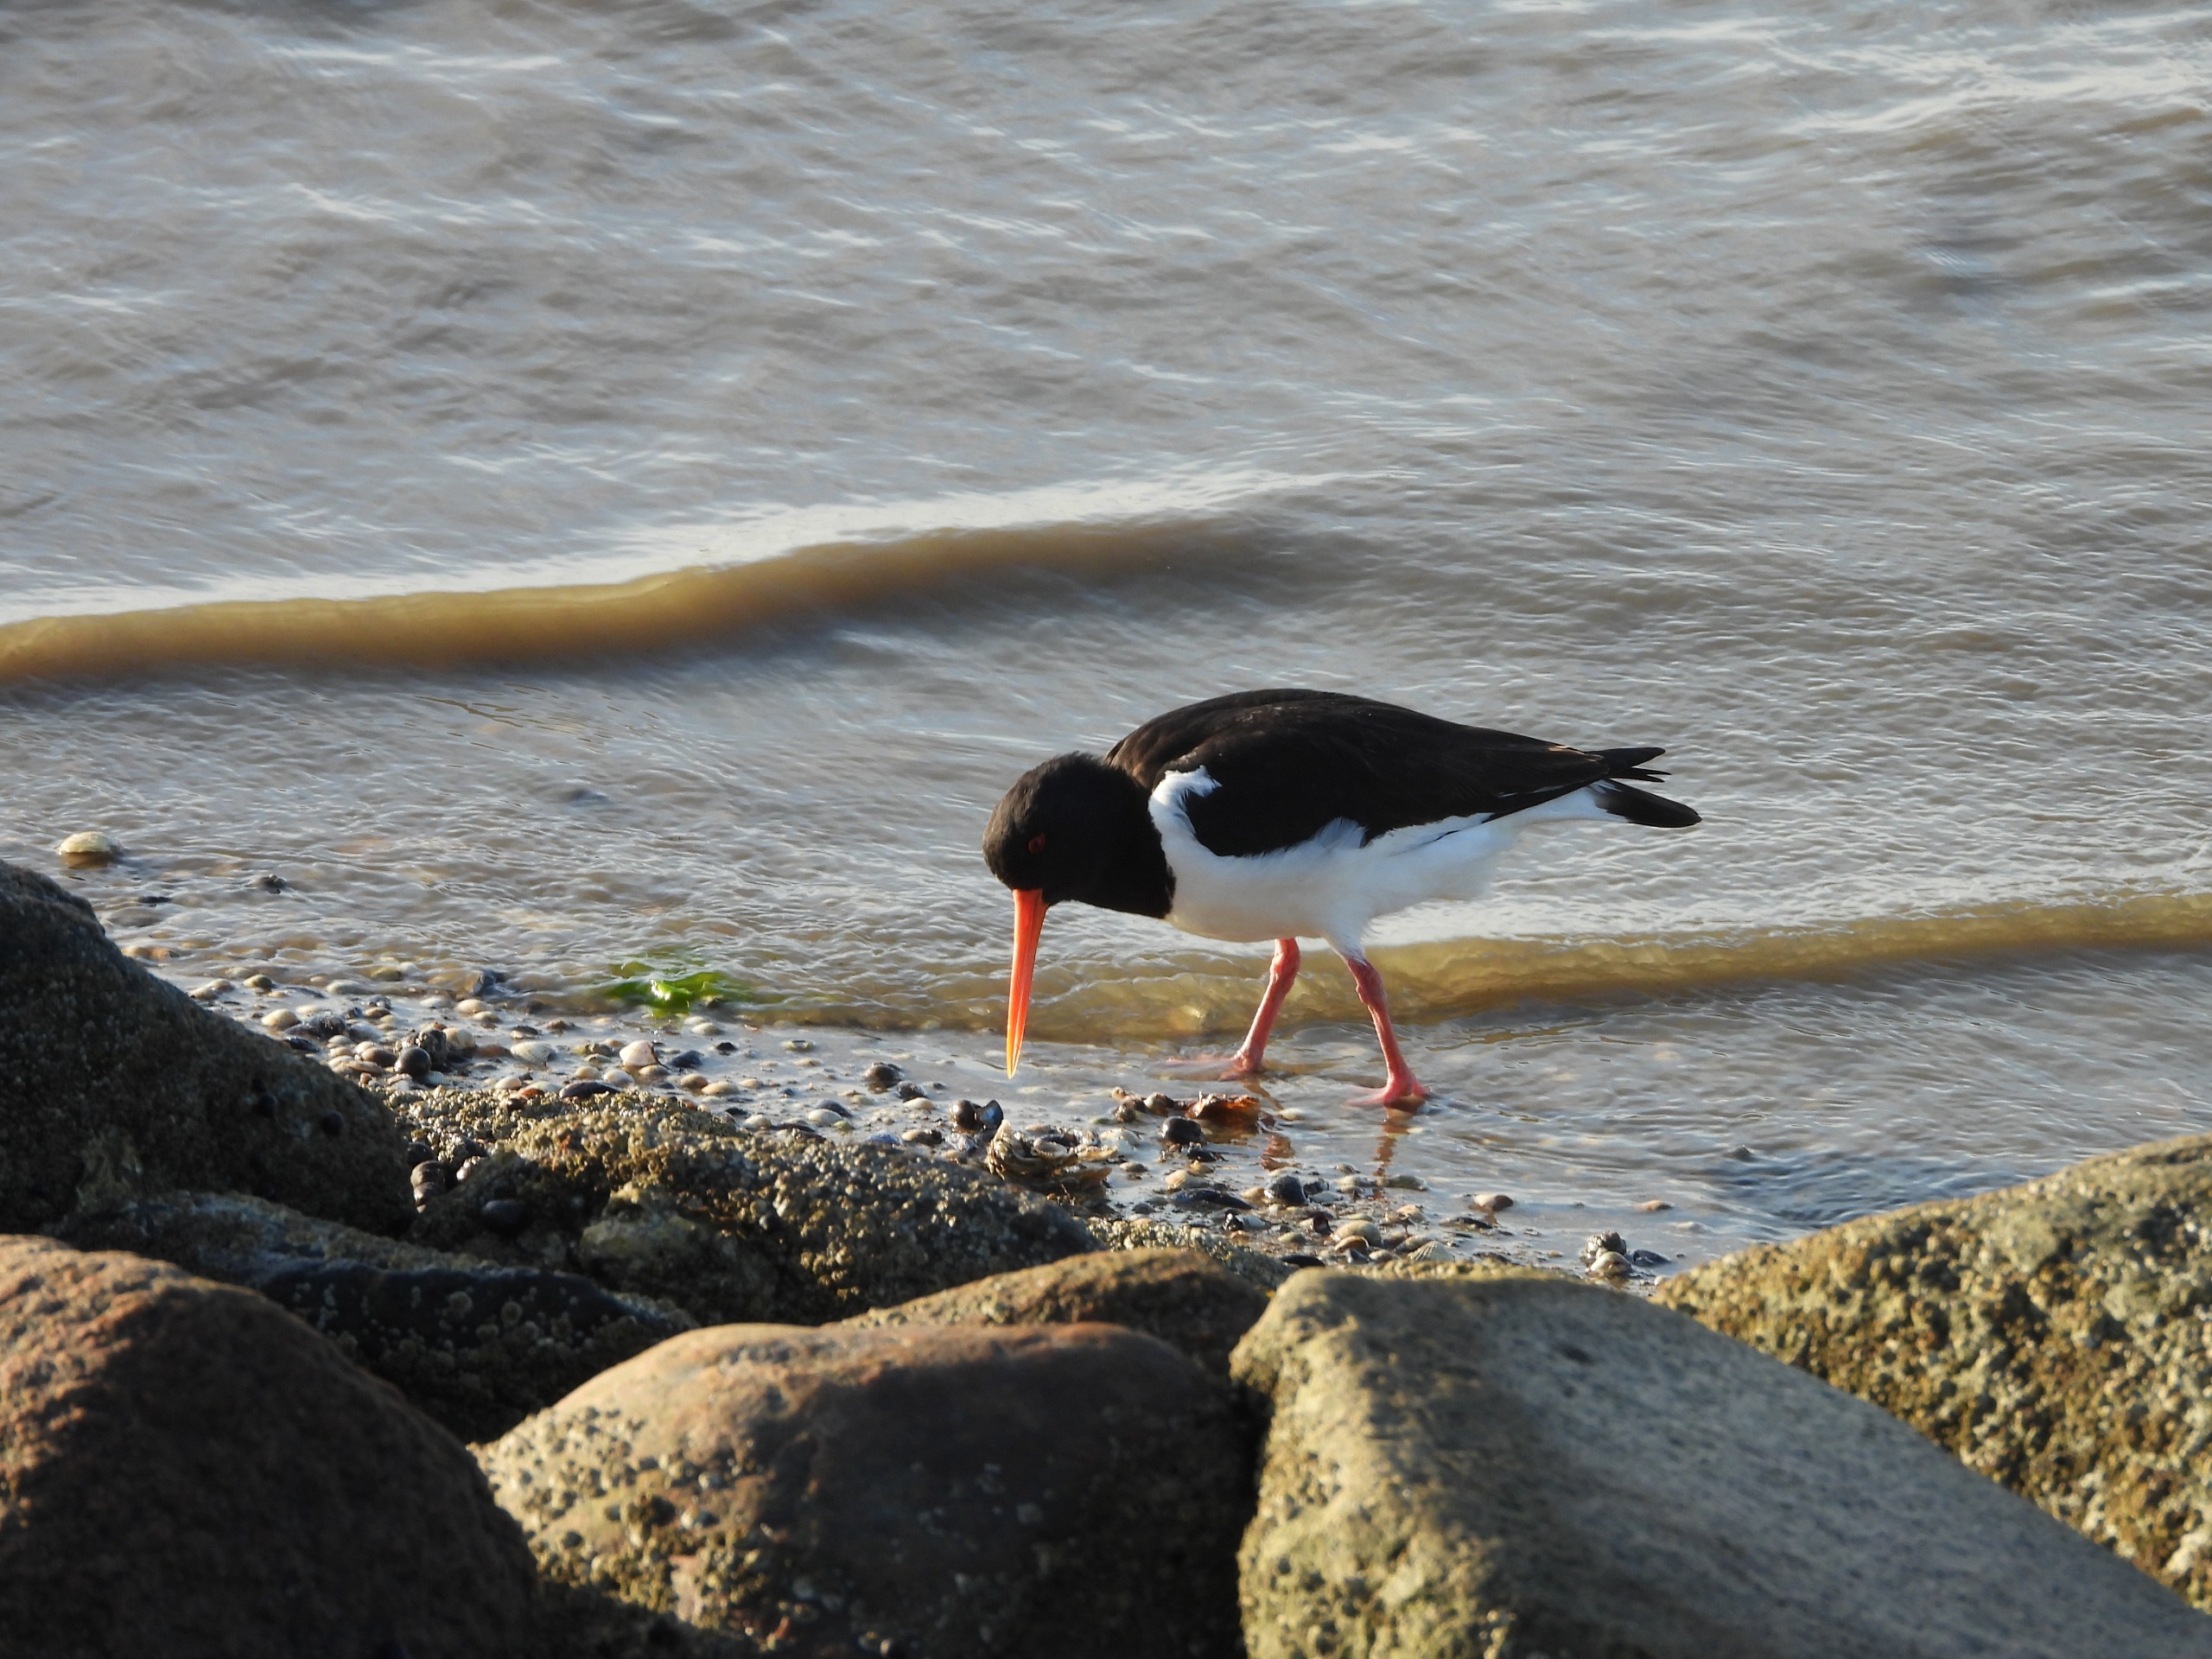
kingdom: Animalia
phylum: Chordata
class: Aves
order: Charadriiformes
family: Haematopodidae
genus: Haematopus
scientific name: Haematopus ostralegus
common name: Strandskade
